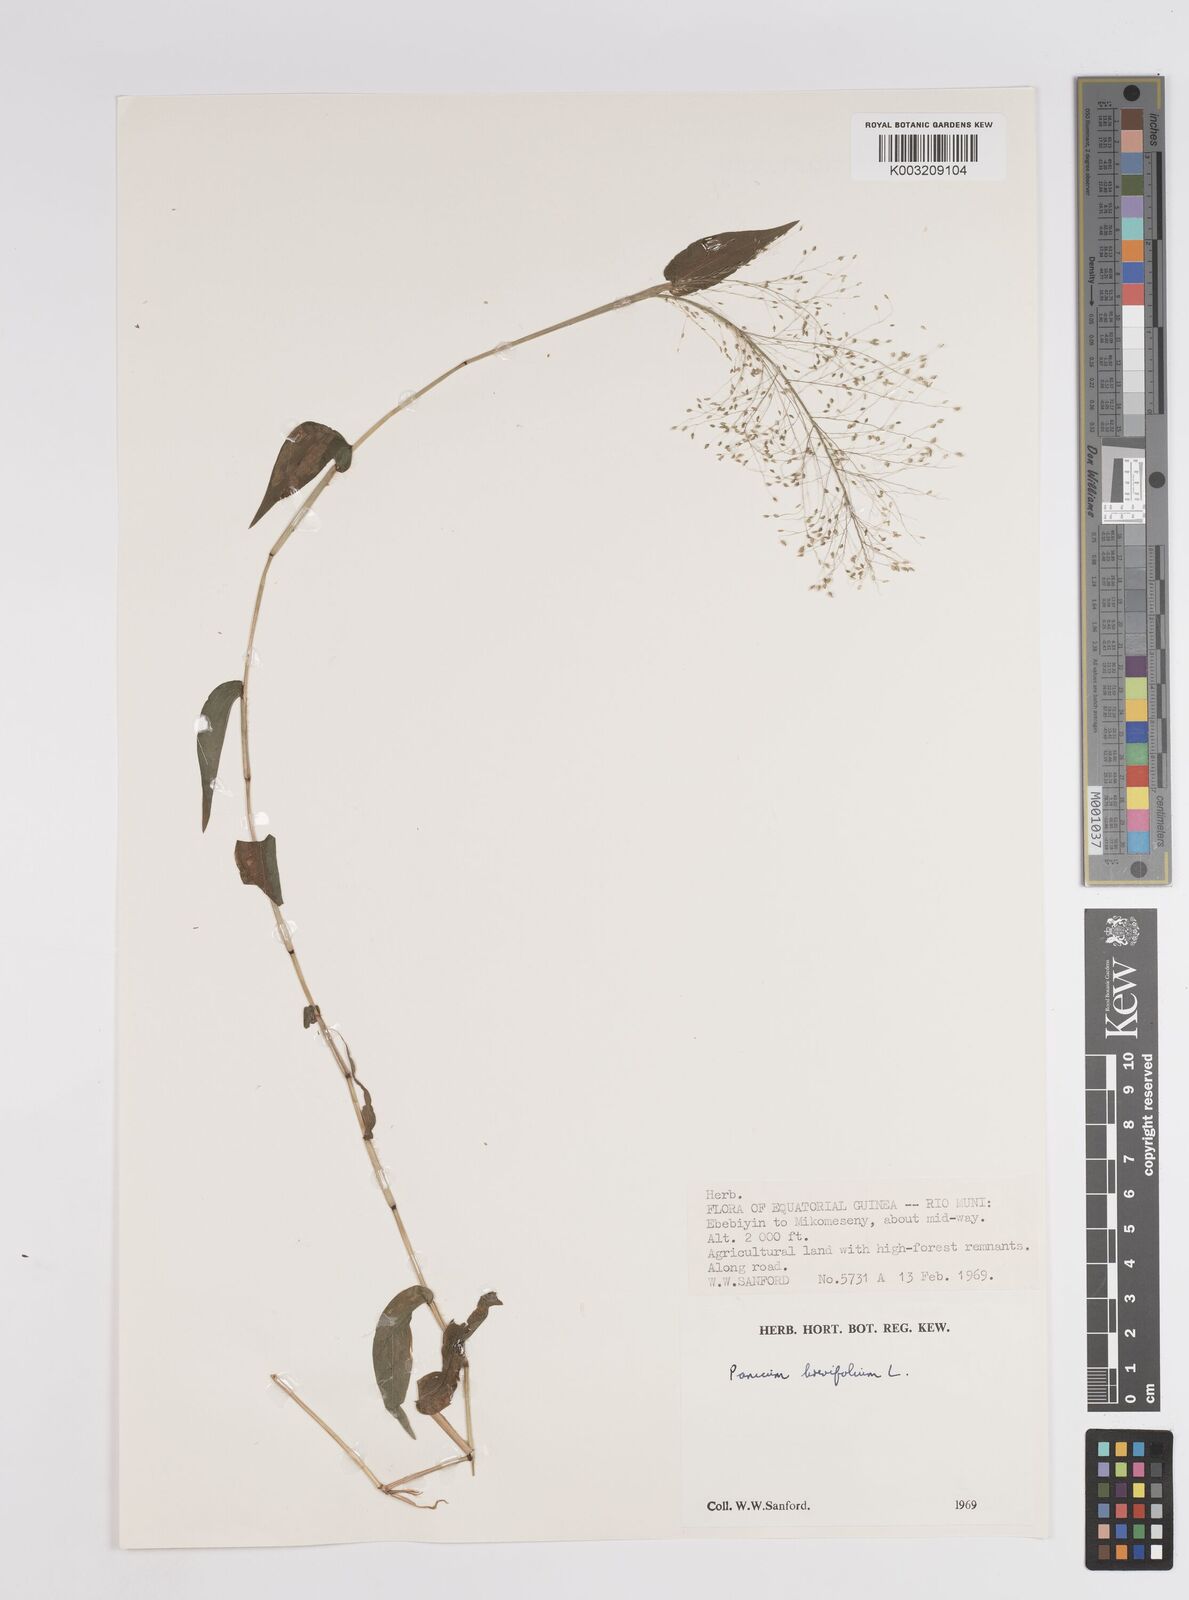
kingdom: Plantae
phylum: Tracheophyta
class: Liliopsida
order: Poales
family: Poaceae
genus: Panicum
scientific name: Panicum brevifolium
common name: Shortleaf panic grass
